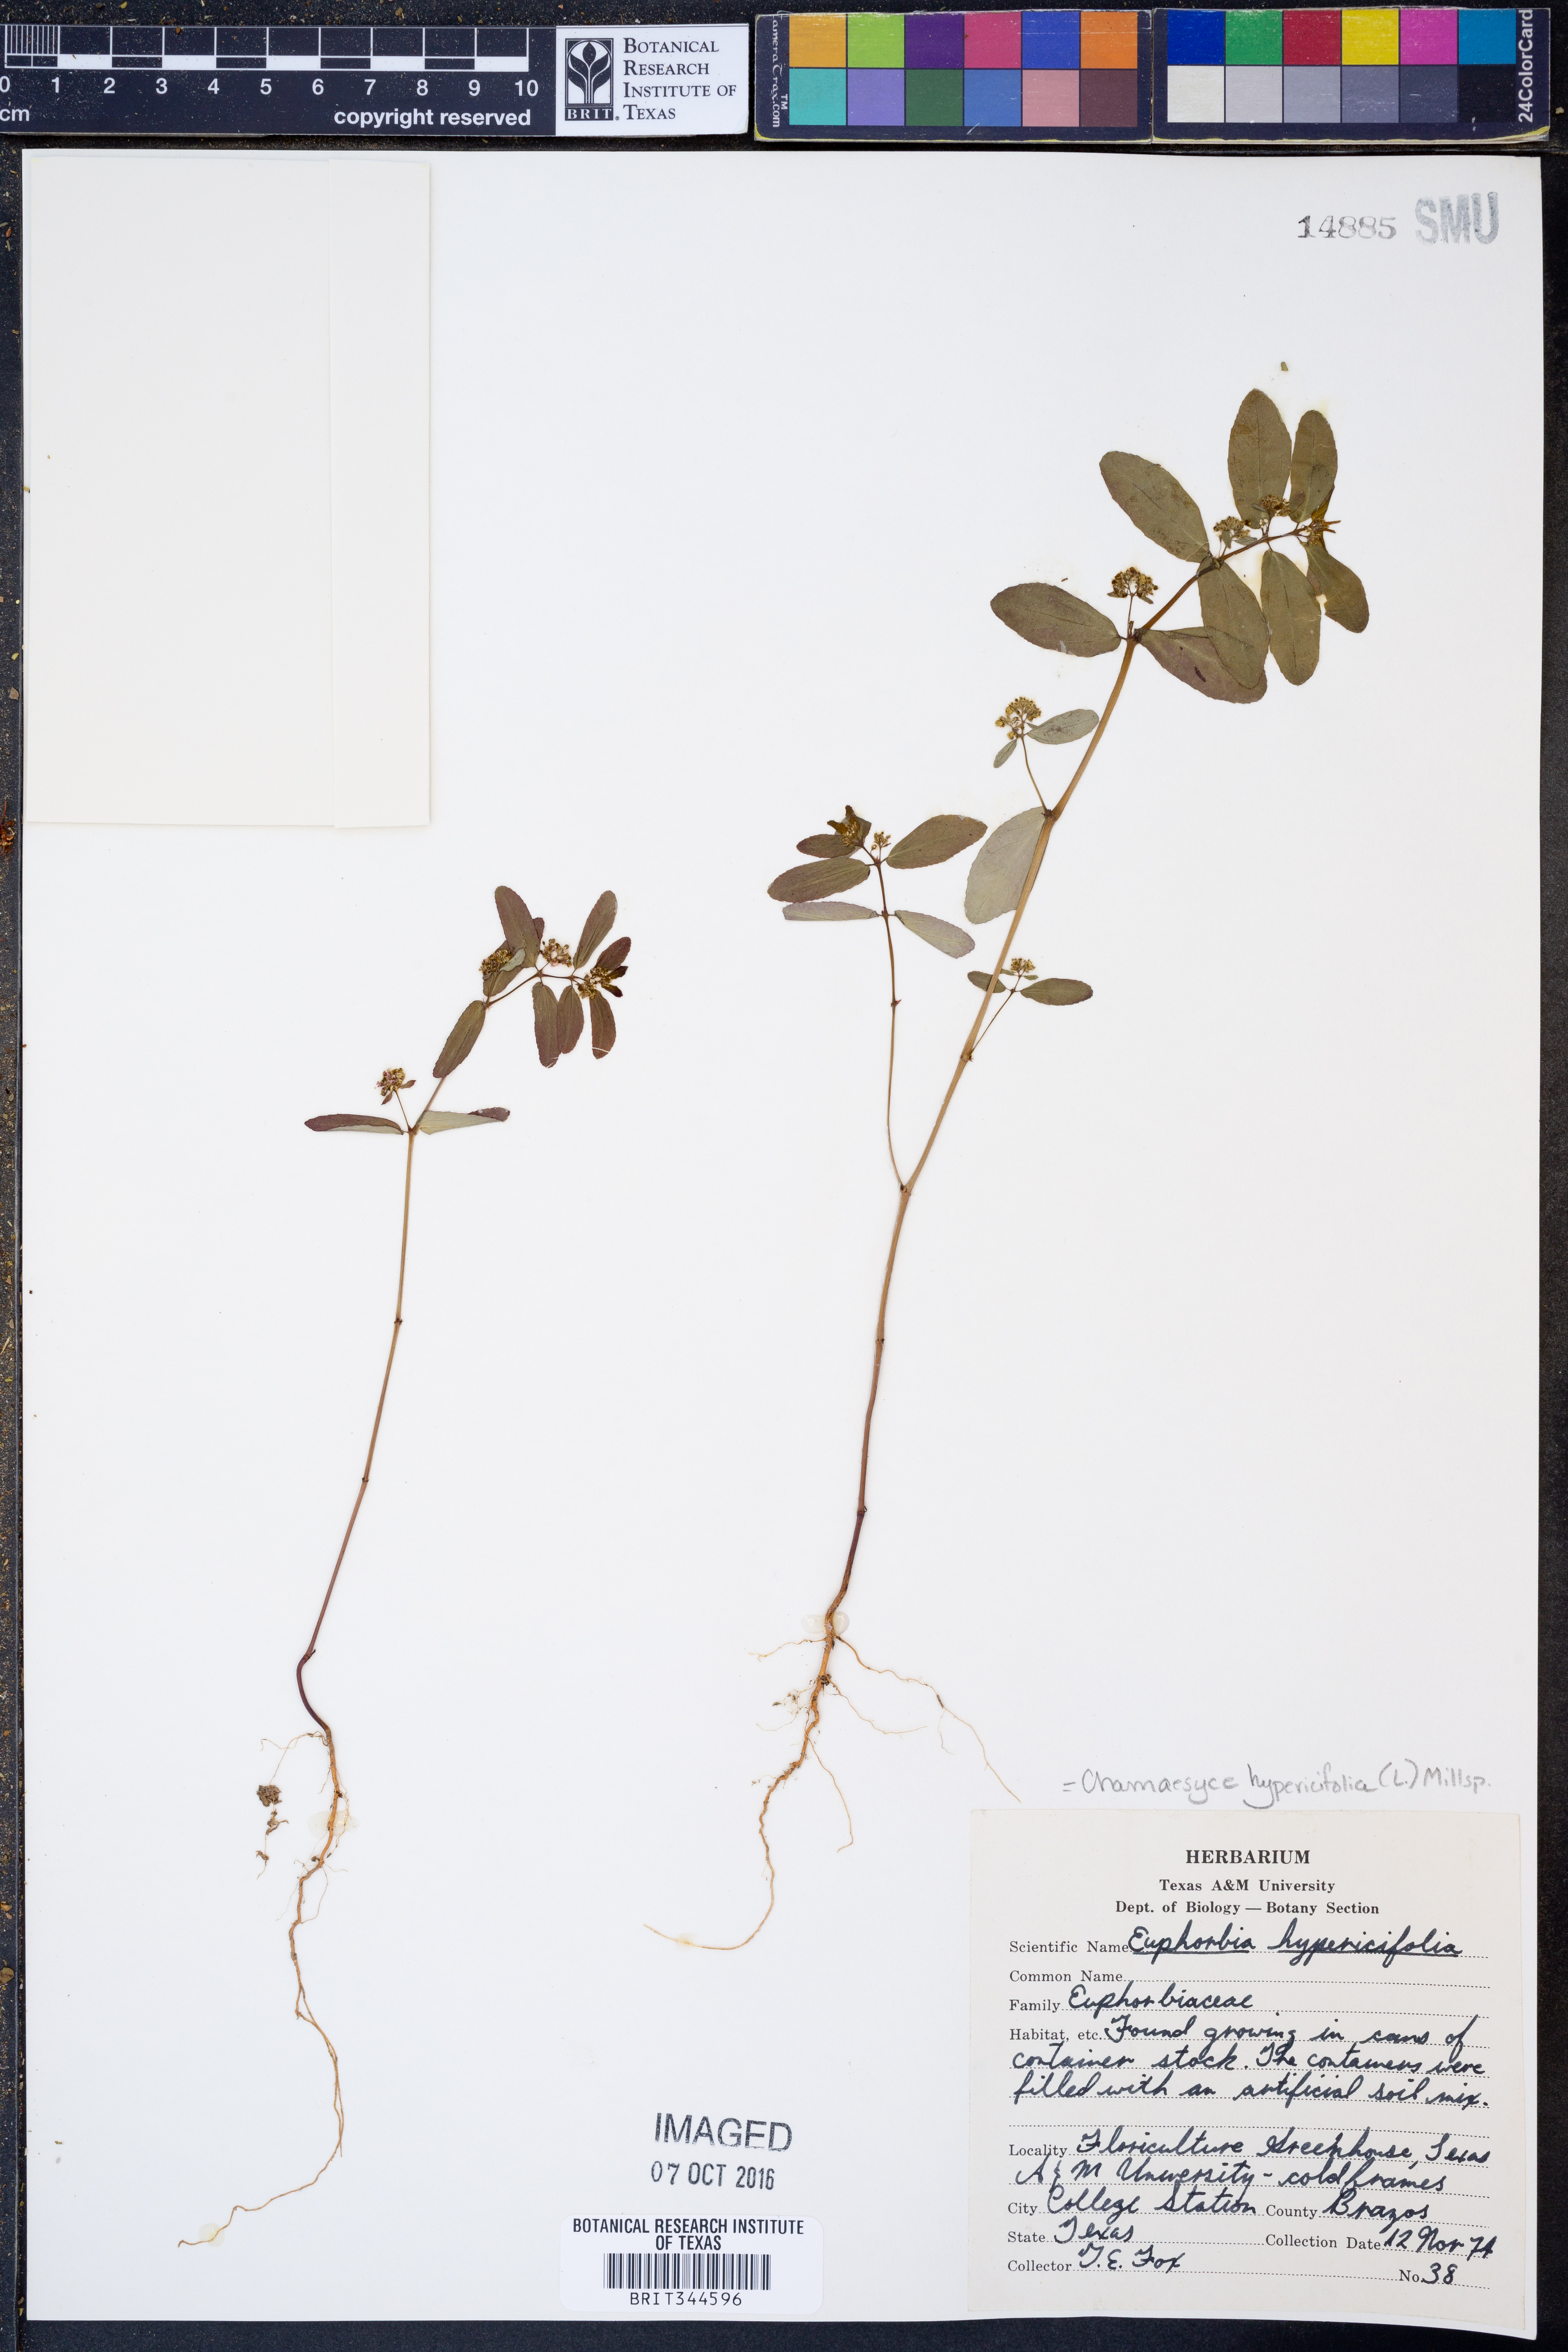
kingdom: Plantae
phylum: Tracheophyta
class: Magnoliopsida
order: Malpighiales
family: Euphorbiaceae
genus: Euphorbia
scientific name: Euphorbia hypericifolia
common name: Graceful sandmat
